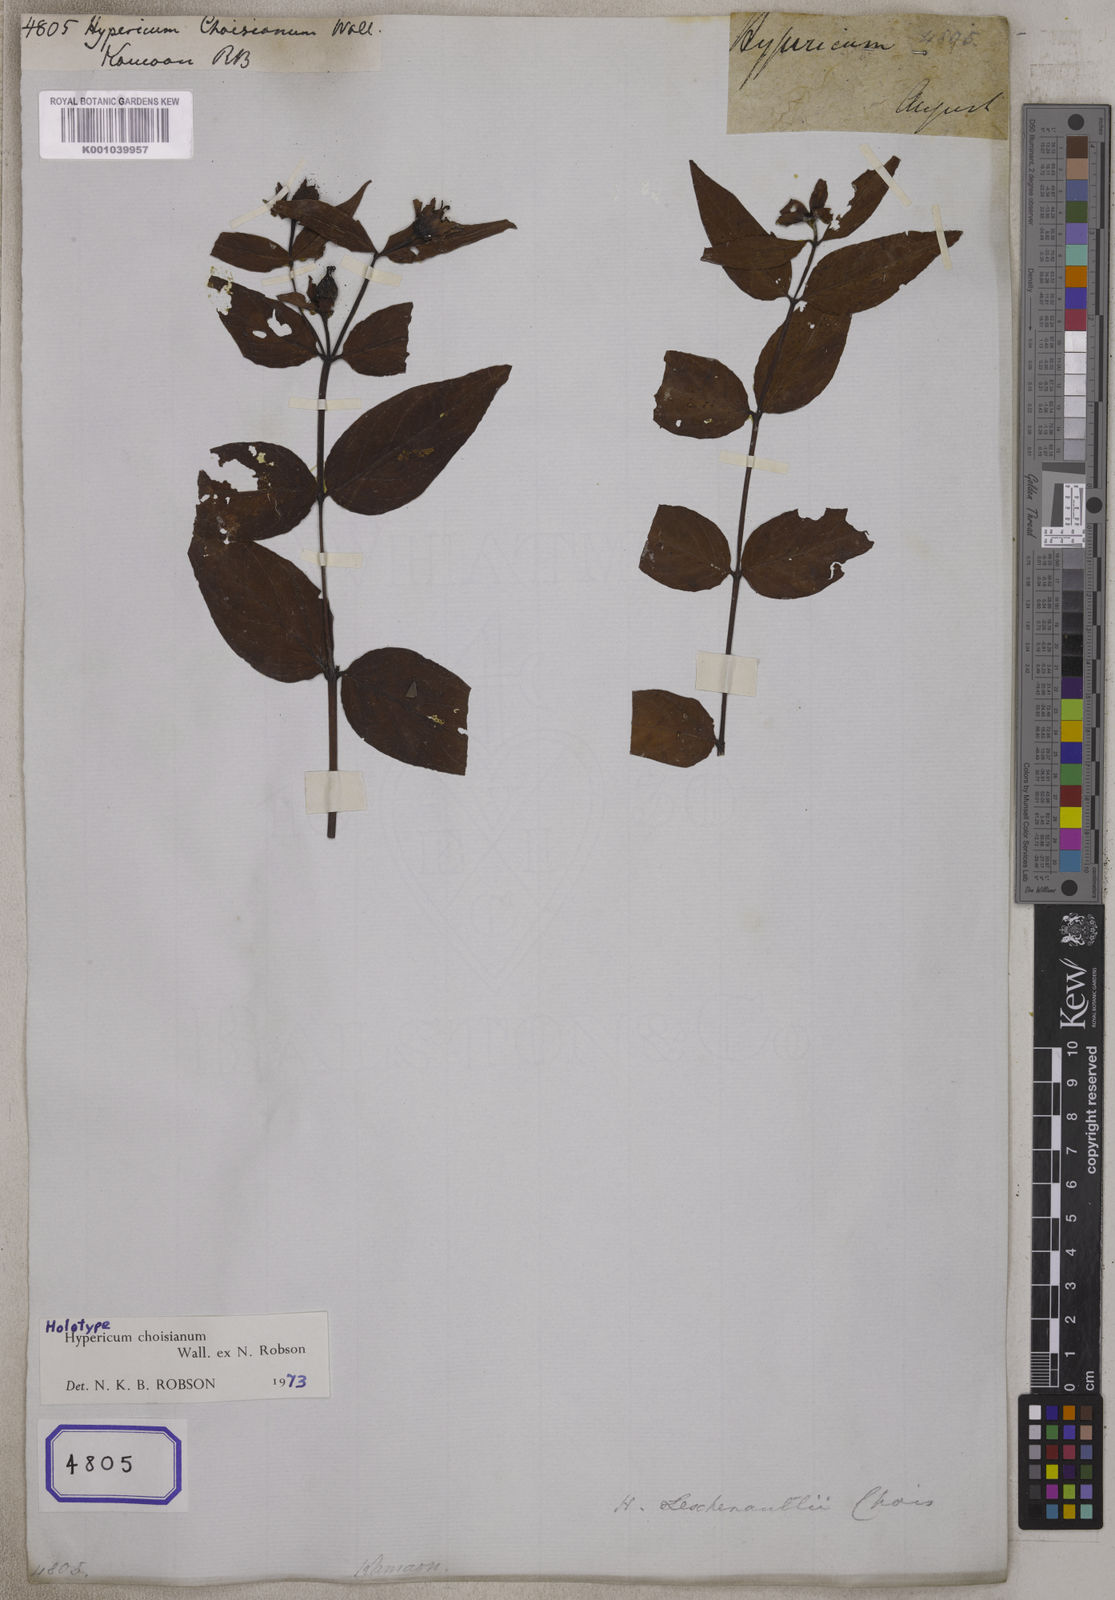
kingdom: Plantae
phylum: Tracheophyta
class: Magnoliopsida
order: Malpighiales
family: Hypericaceae
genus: Hypericum
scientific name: Hypericum
